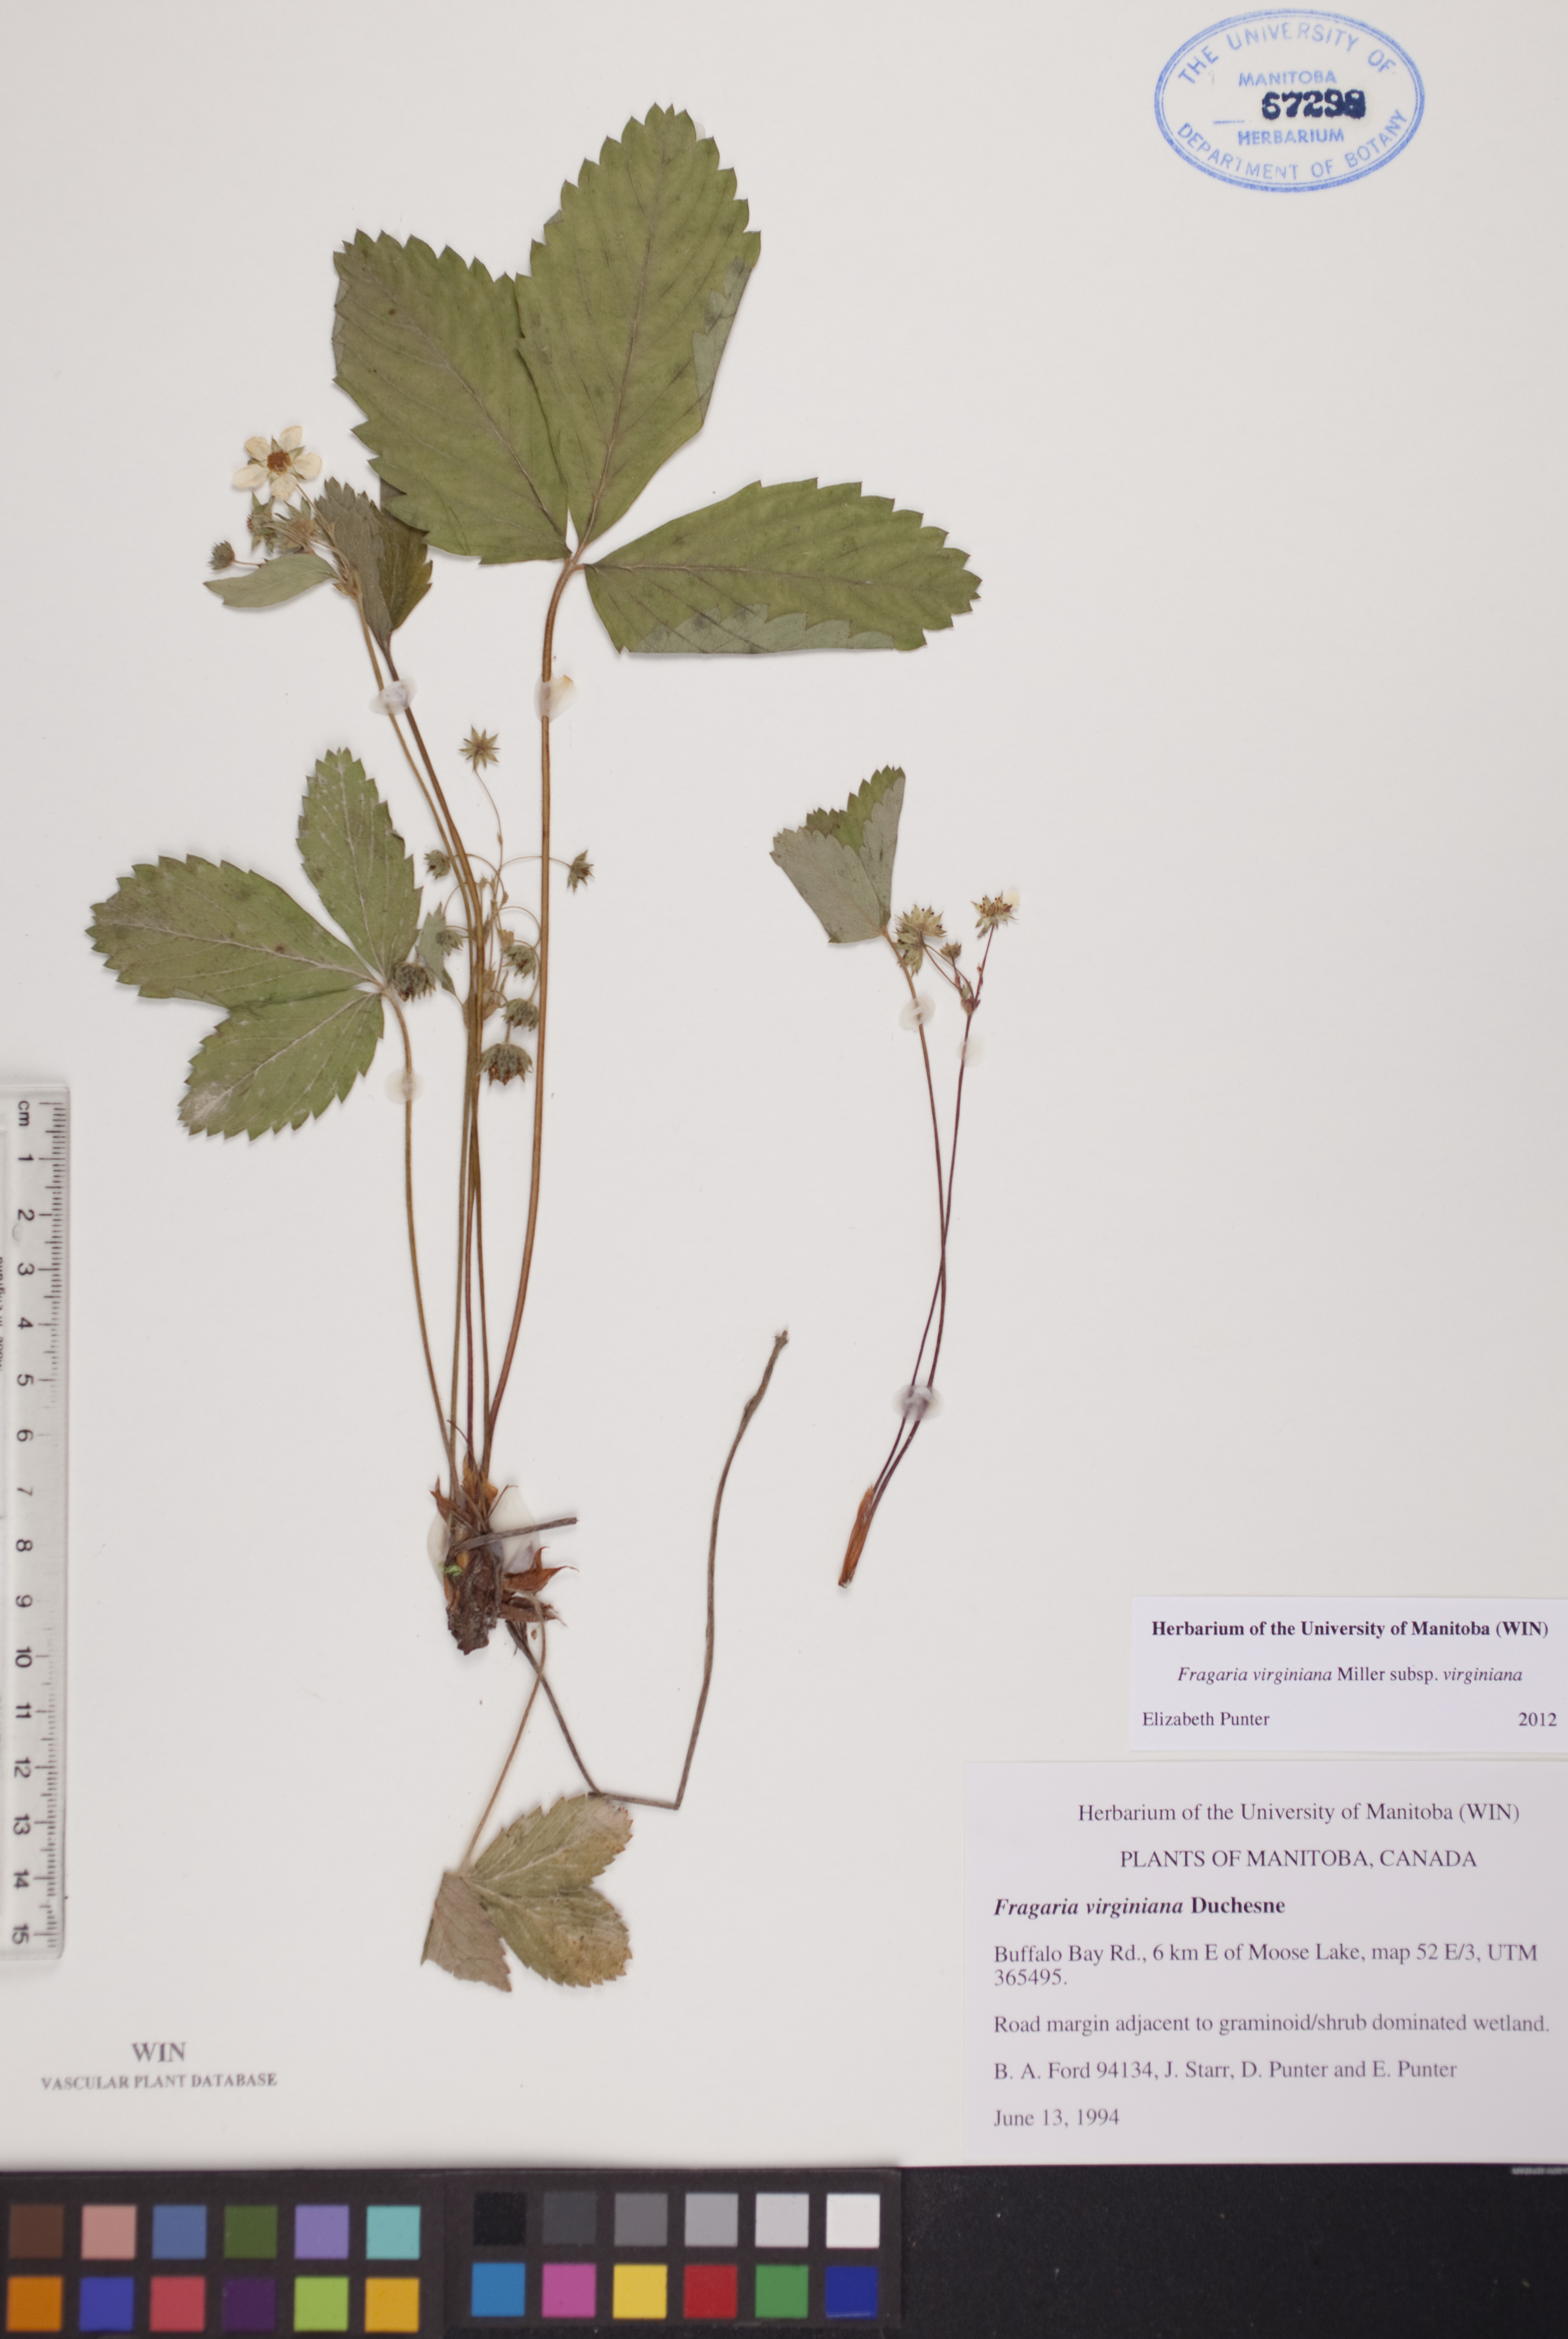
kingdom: Plantae
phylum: Tracheophyta
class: Magnoliopsida
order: Rosales
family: Rosaceae
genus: Fragaria
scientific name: Fragaria virginiana
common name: Thickleaved wild strawberry
